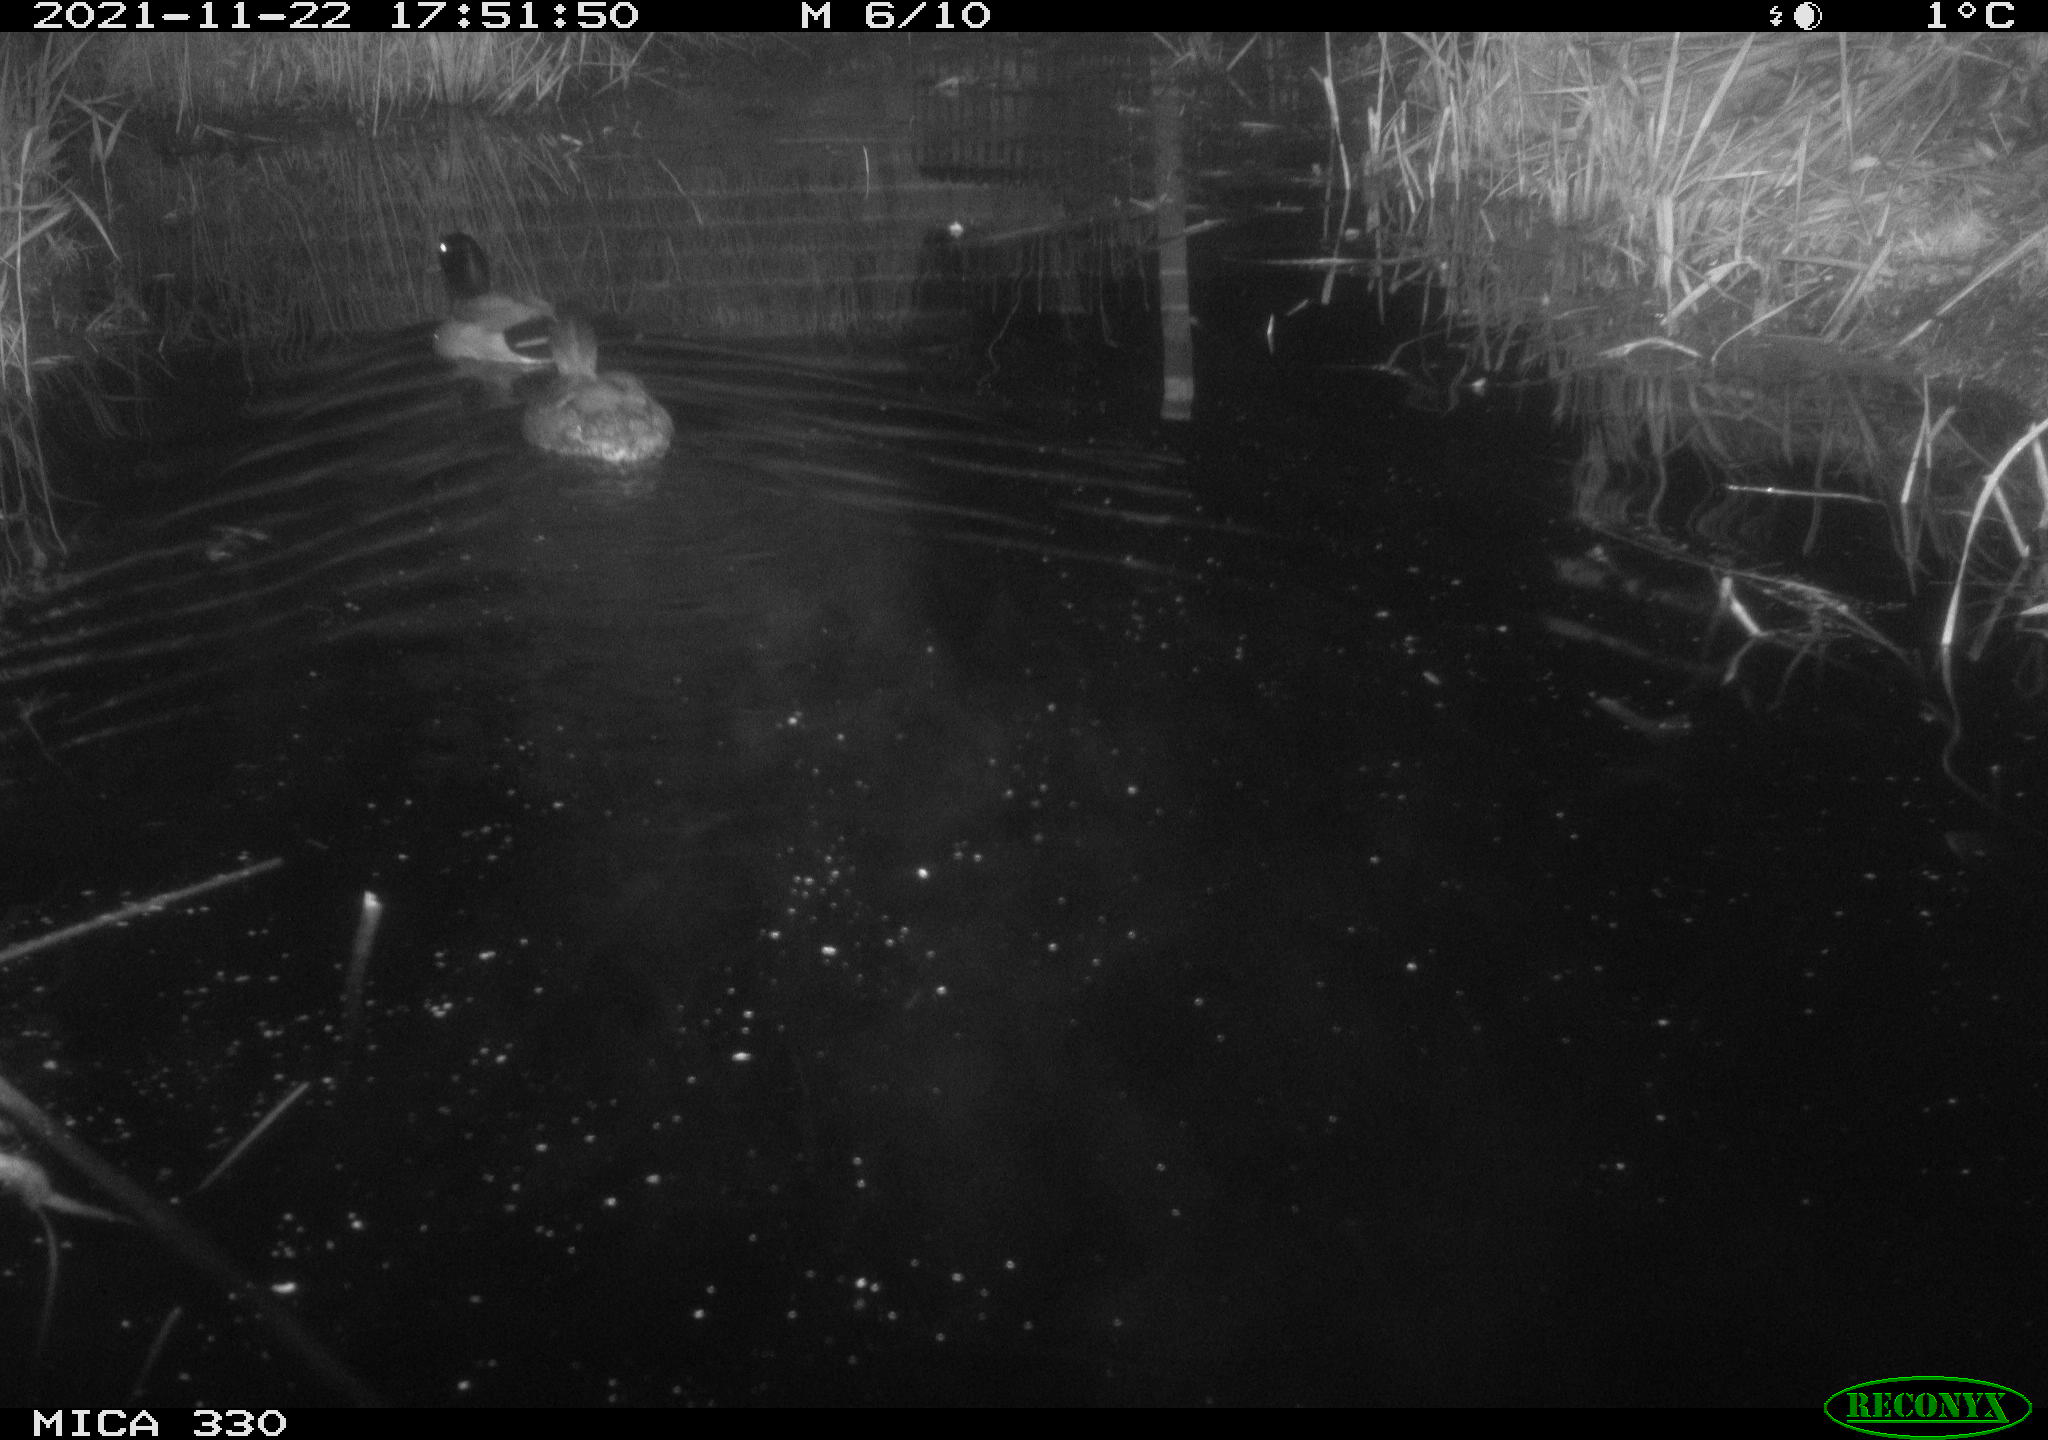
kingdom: Animalia
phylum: Chordata
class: Aves
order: Anseriformes
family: Anatidae
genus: Anas
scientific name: Anas platyrhynchos
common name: Mallard
